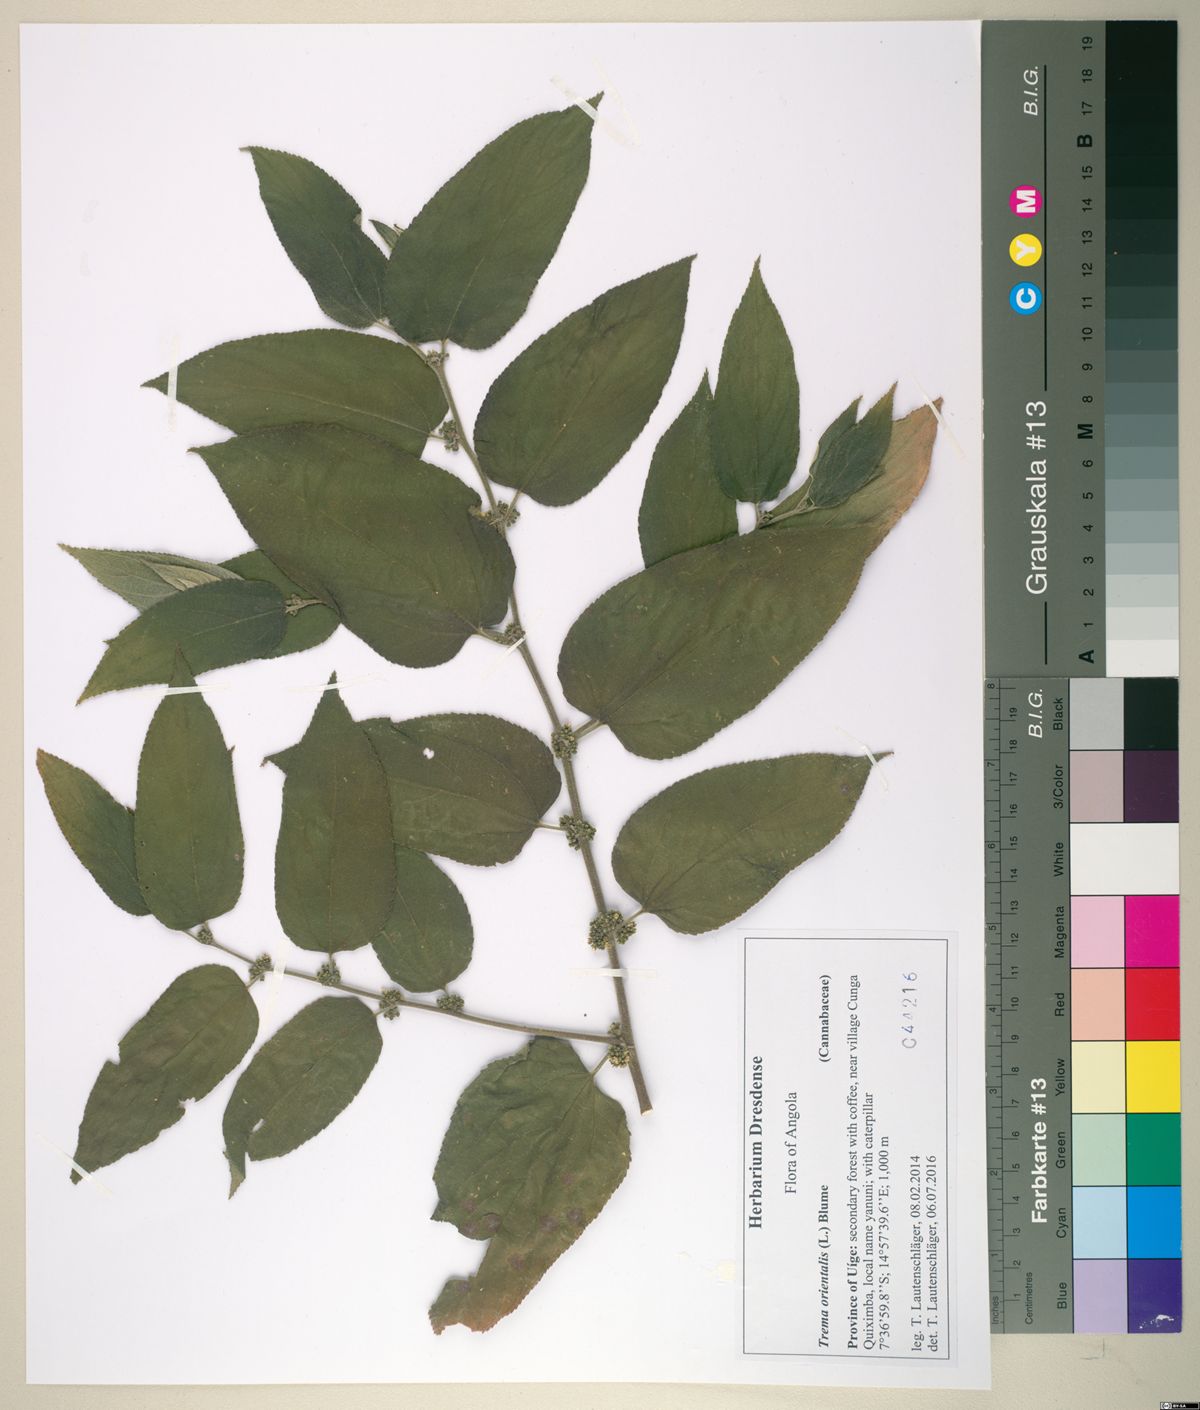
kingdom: Plantae
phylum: Tracheophyta
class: Magnoliopsida
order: Rosales
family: Cannabaceae
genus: Trema
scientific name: Trema orientale
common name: Indian charcoal tree
